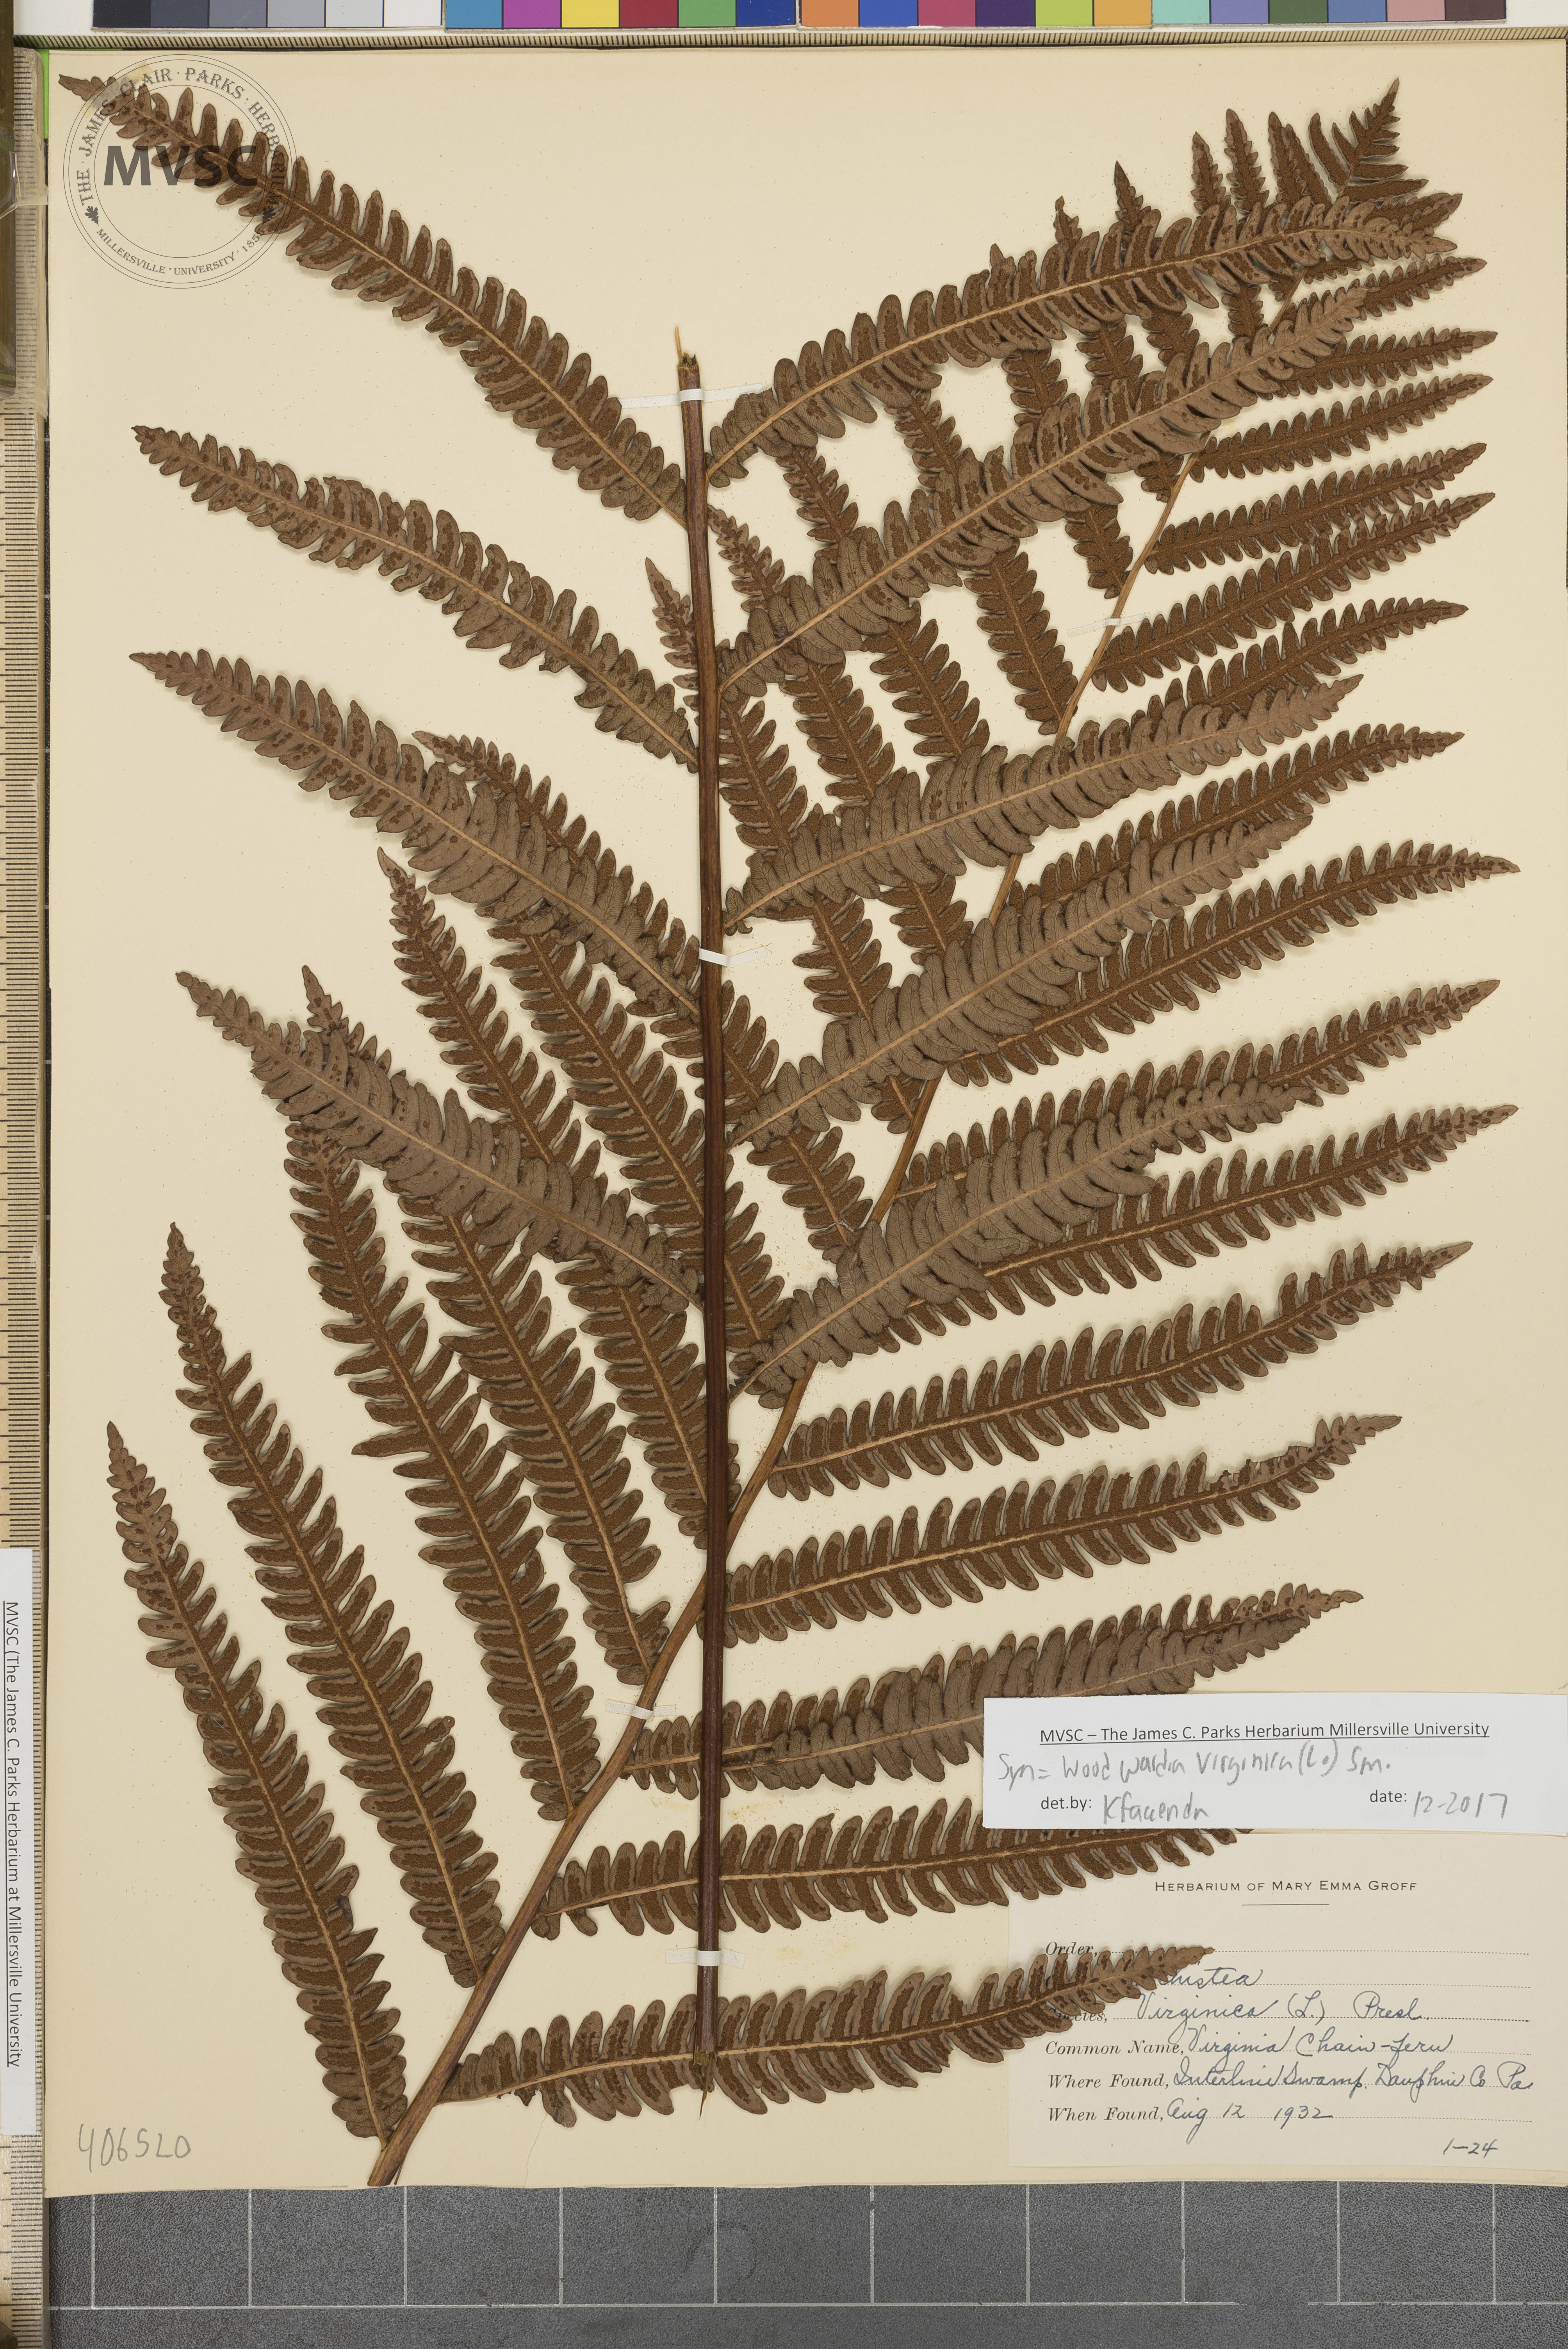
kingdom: Plantae
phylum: Tracheophyta
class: Polypodiopsida
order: Polypodiales
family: Blechnaceae
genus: Anchistea
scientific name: Anchistea virginica
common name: Virginia chain fern
